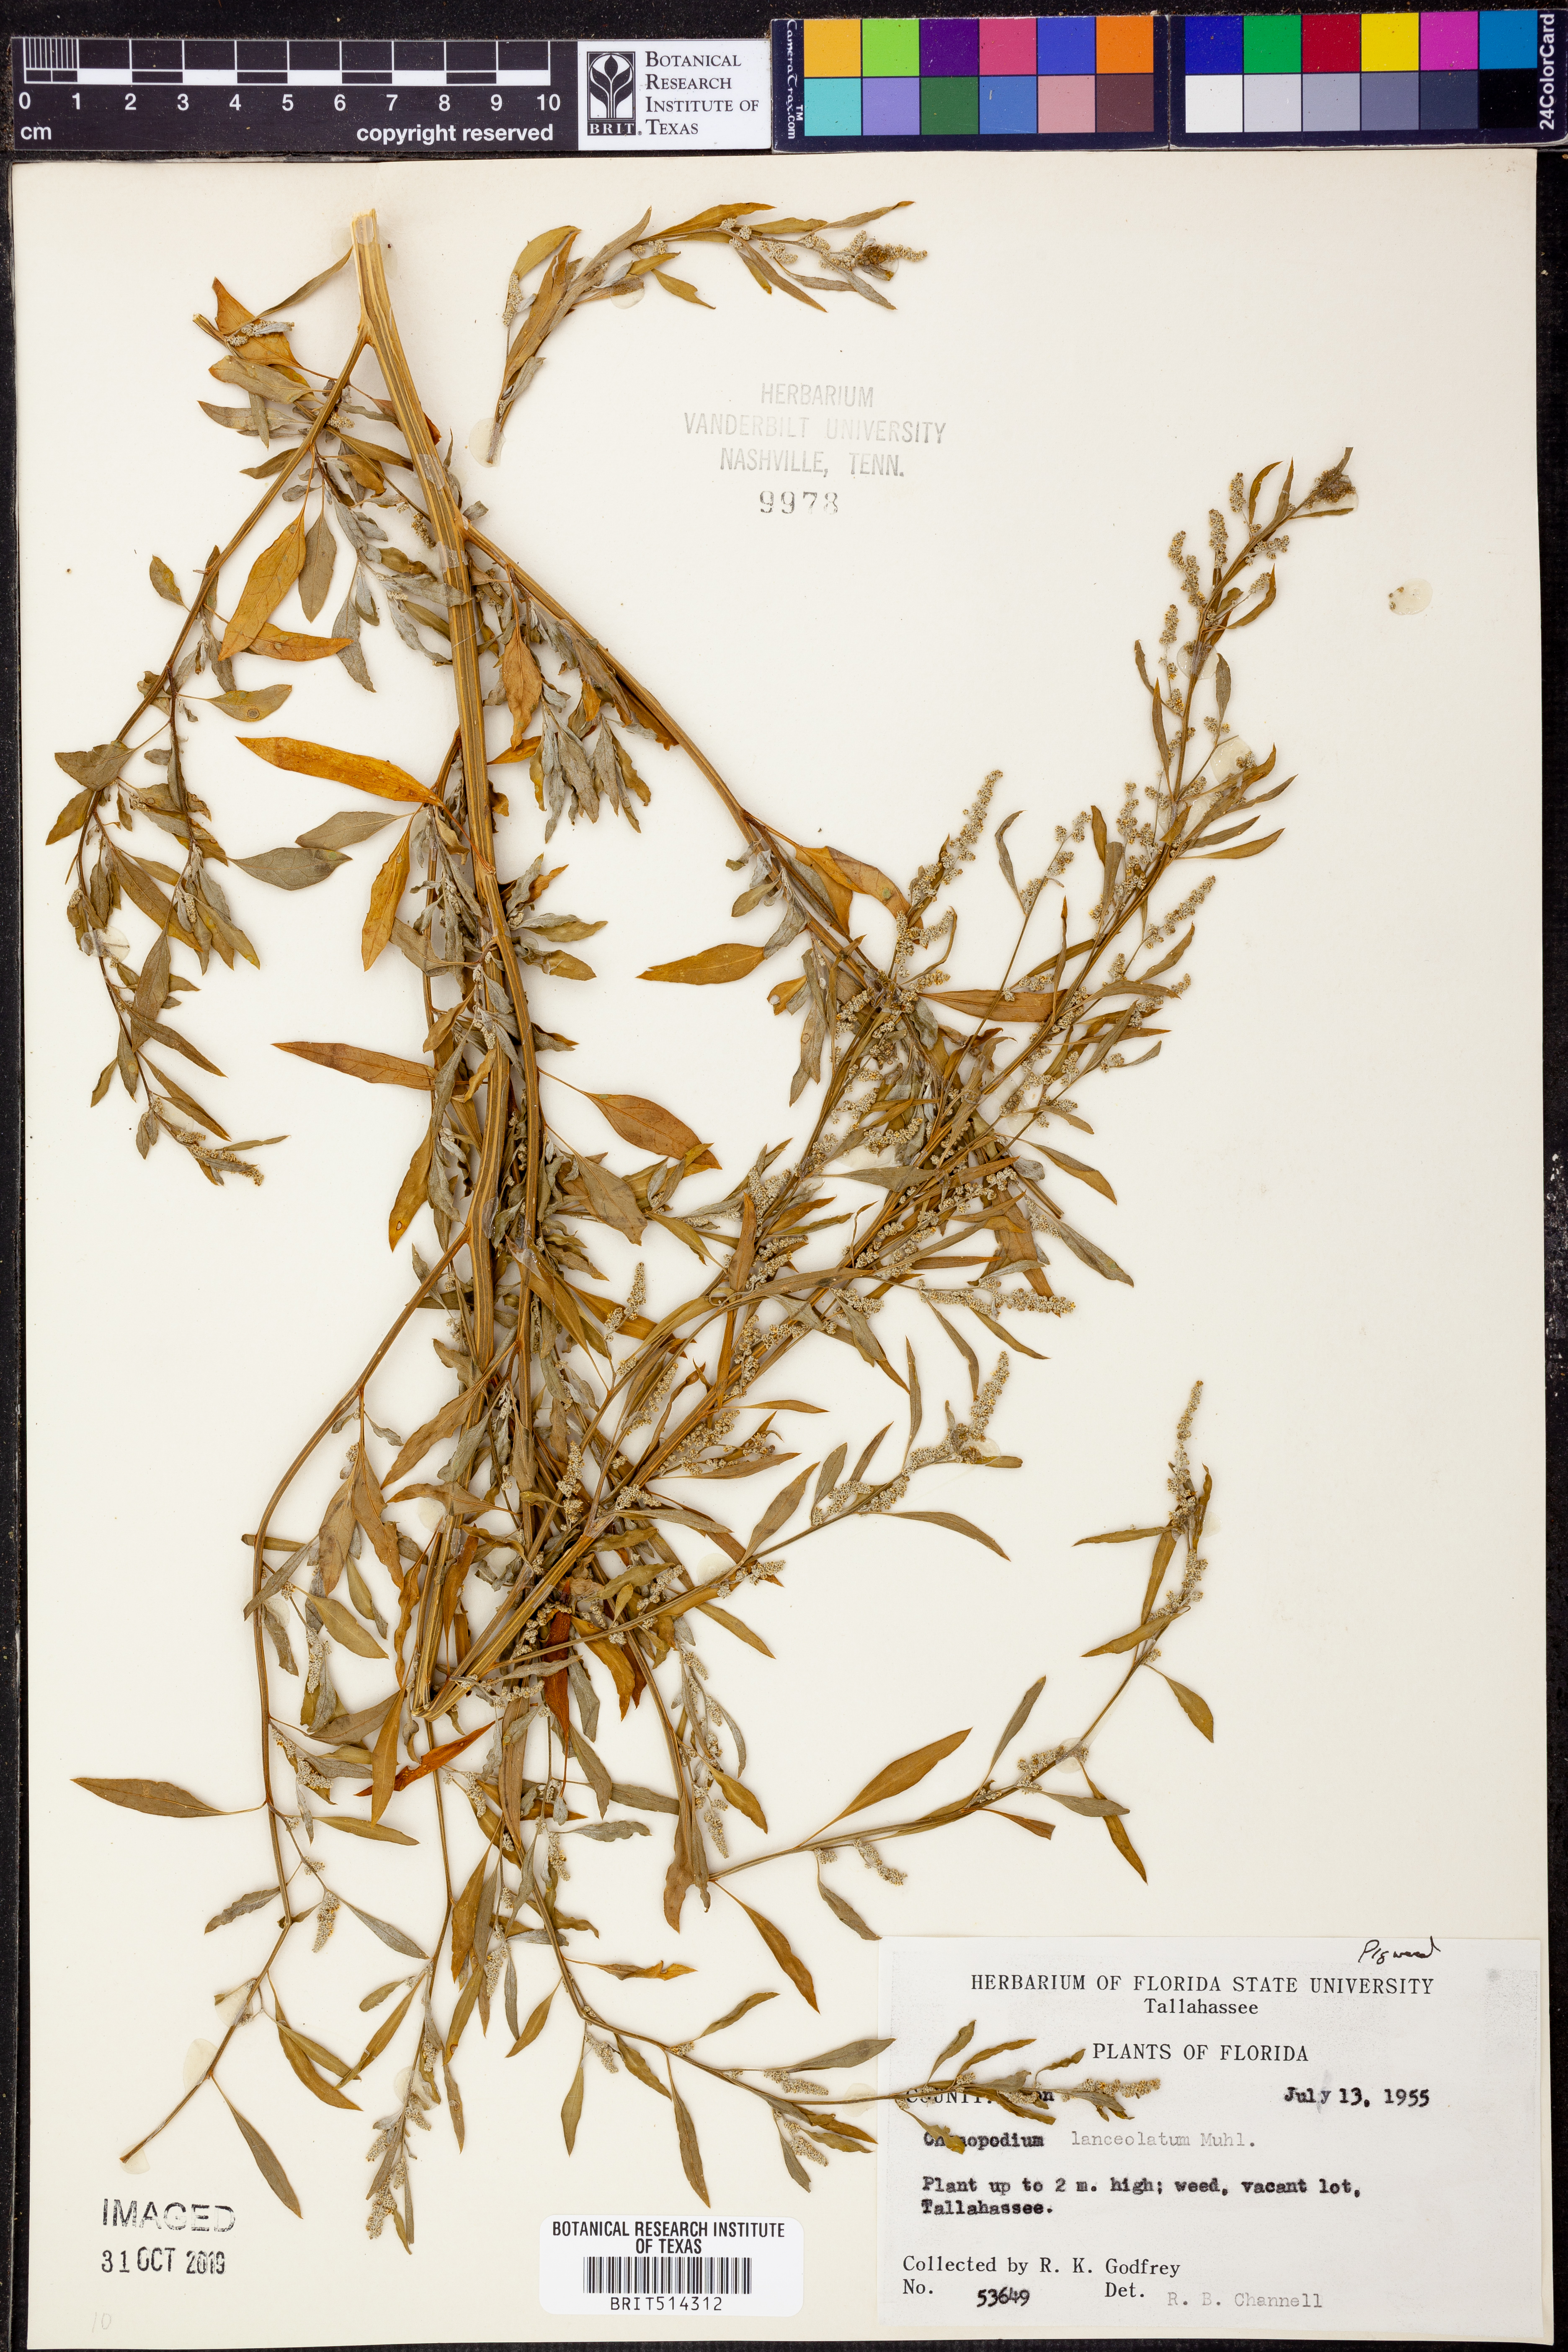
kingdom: Plantae
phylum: Tracheophyta
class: Magnoliopsida
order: Caryophyllales
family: Amaranthaceae
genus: Chenopodium
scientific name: Chenopodium album
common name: Fat-hen
